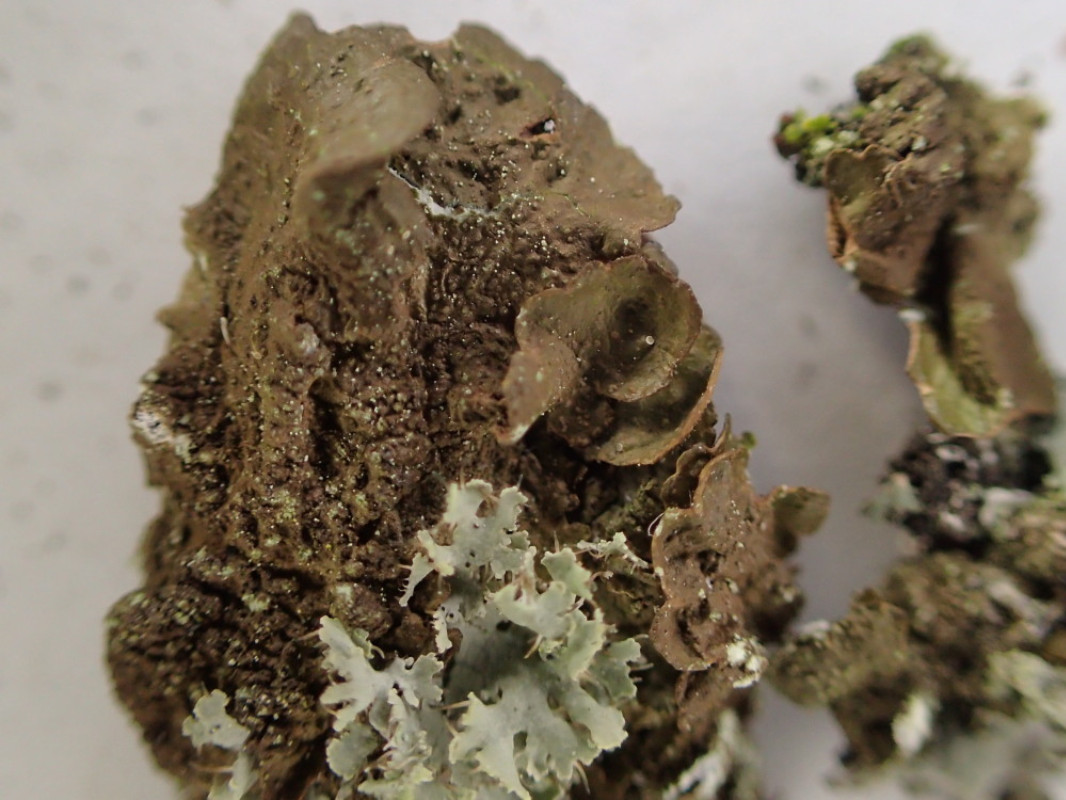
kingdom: Fungi
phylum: Ascomycota
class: Lecanoromycetes
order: Lecanorales
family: Parmeliaceae
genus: Melanelixia
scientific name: Melanelixia subaurifera
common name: guldpudret skållav
